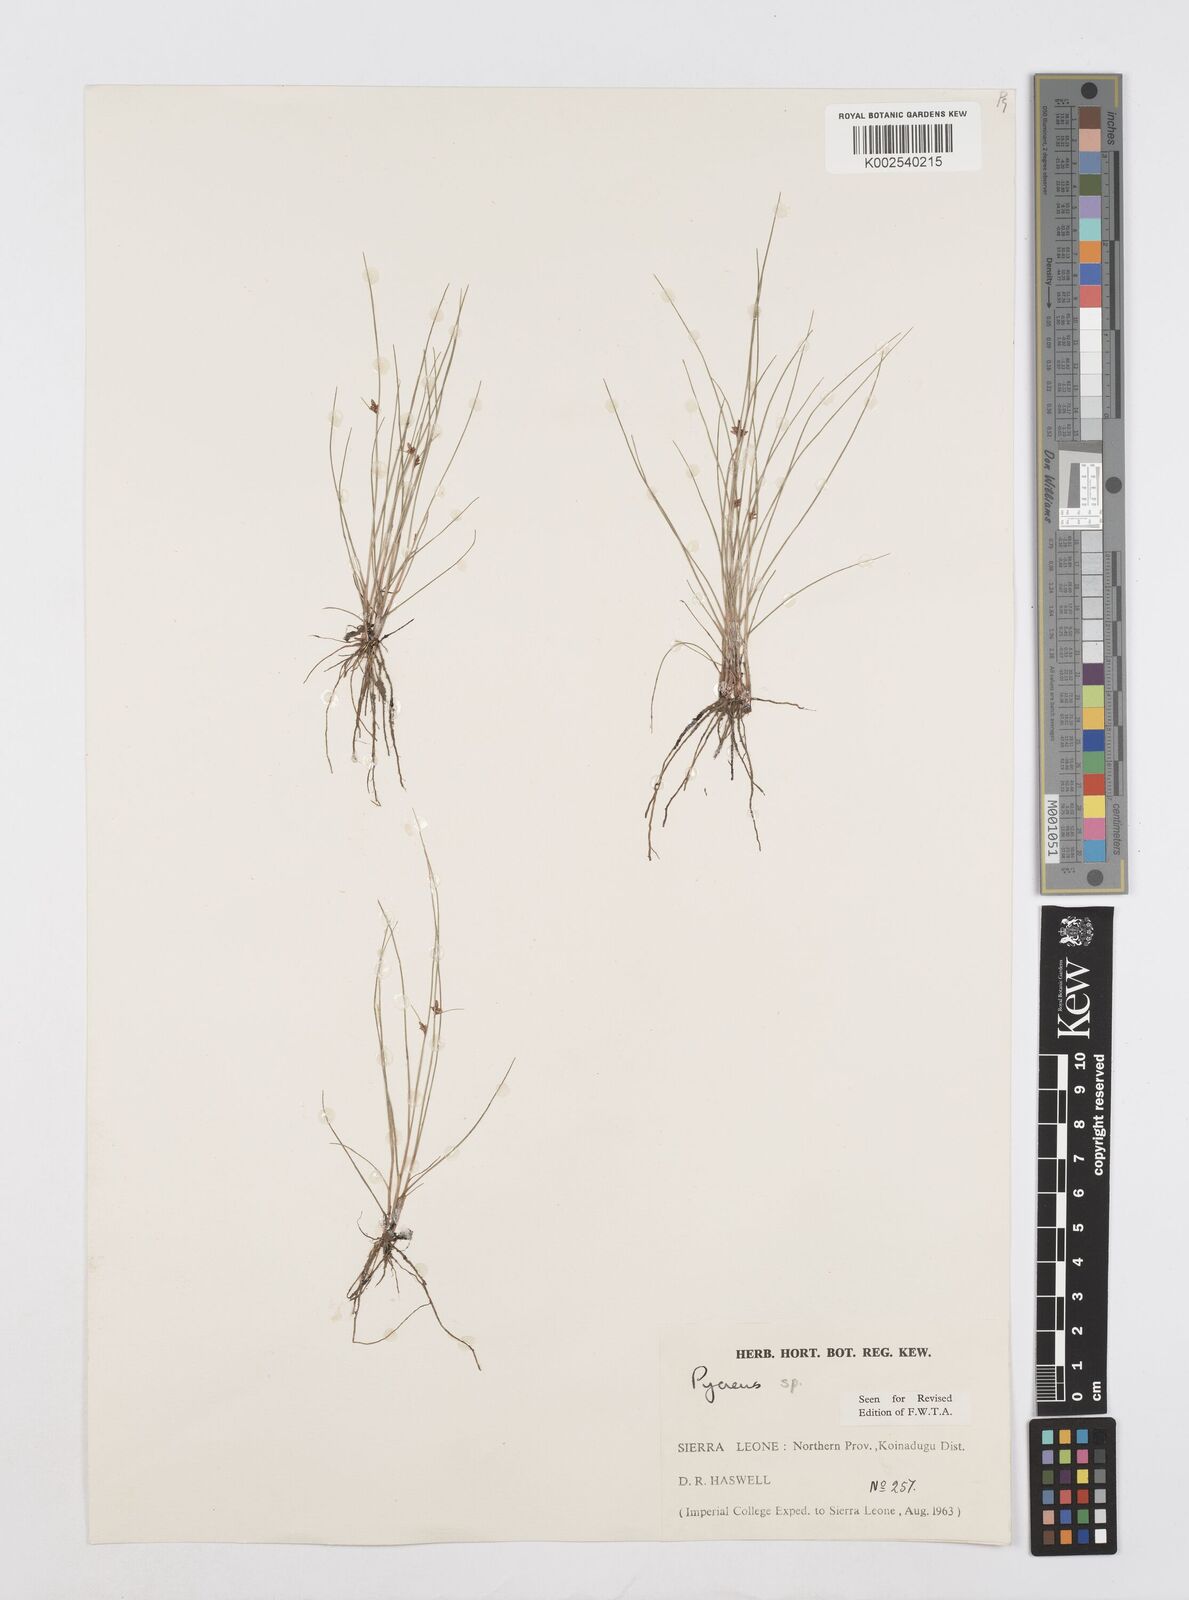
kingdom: Plantae
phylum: Tracheophyta
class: Liliopsida
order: Poales
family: Cyperaceae
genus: Cyperus
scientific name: Cyperus capillifolius
